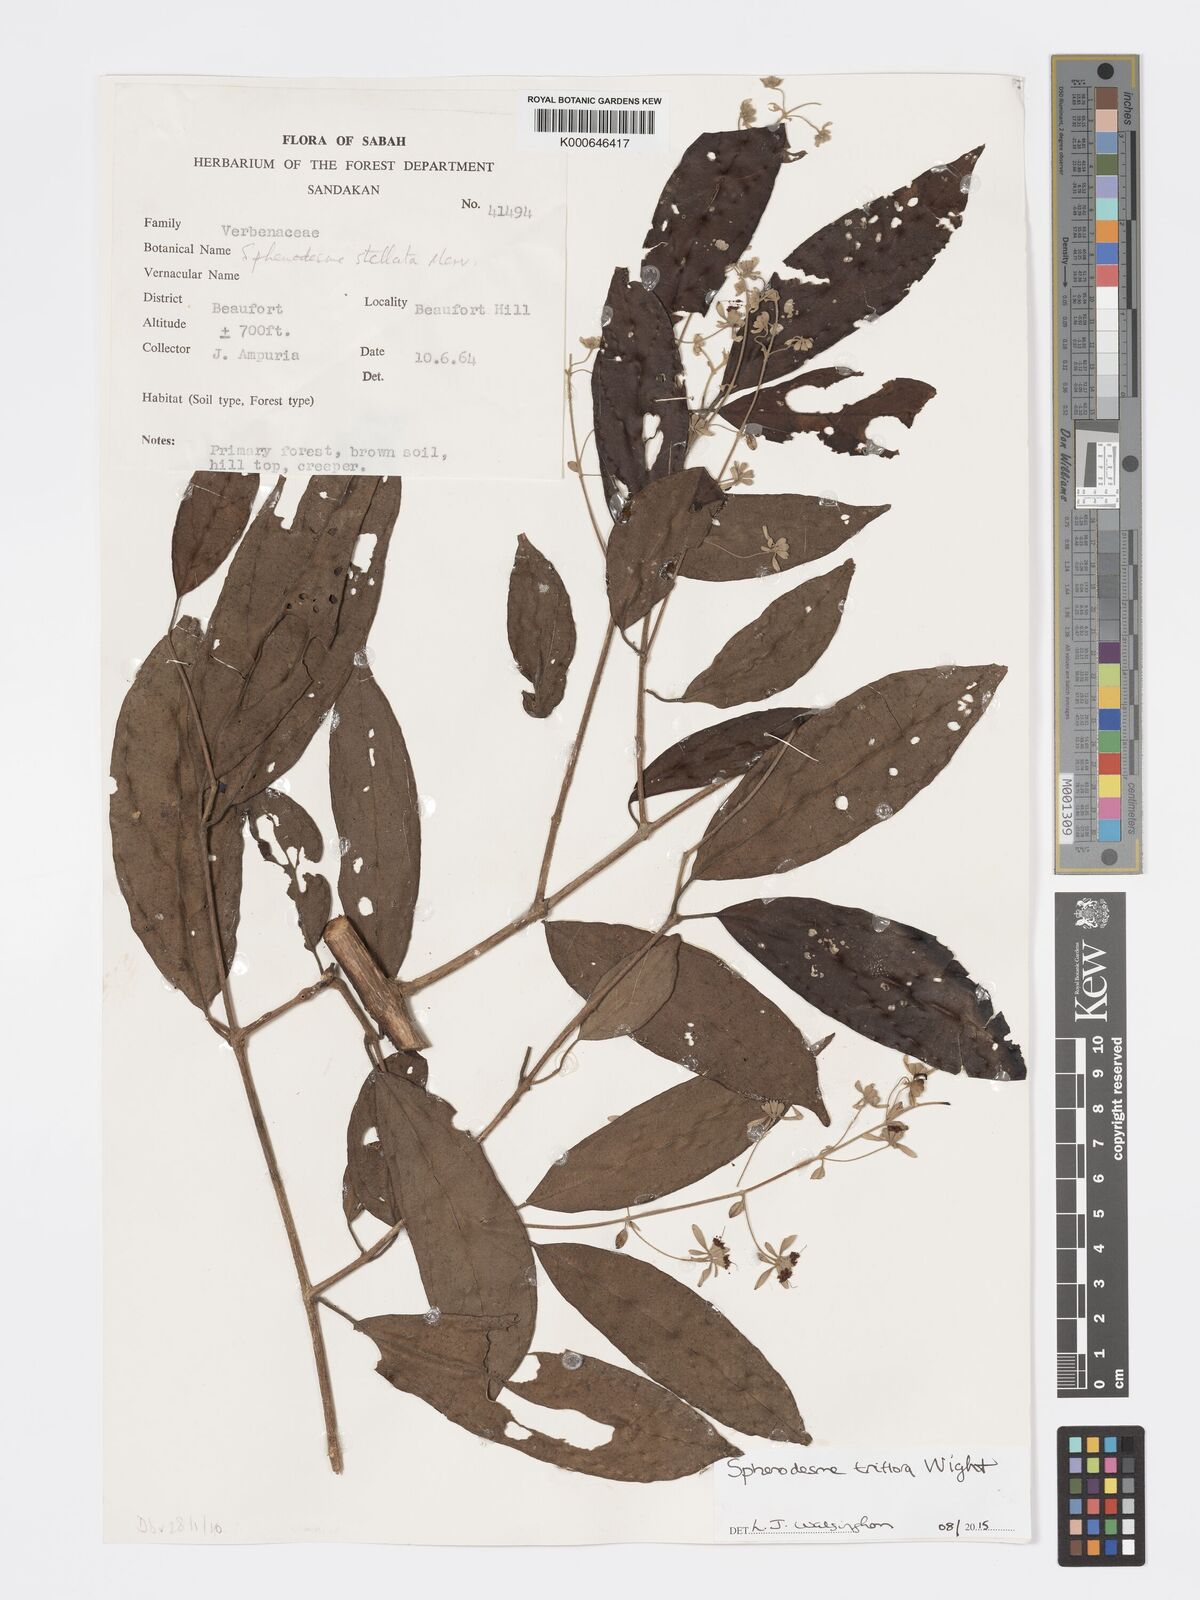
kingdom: Plantae
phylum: Tracheophyta
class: Magnoliopsida
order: Lamiales
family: Lamiaceae
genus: Sphenodesme
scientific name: Sphenodesme triflora
